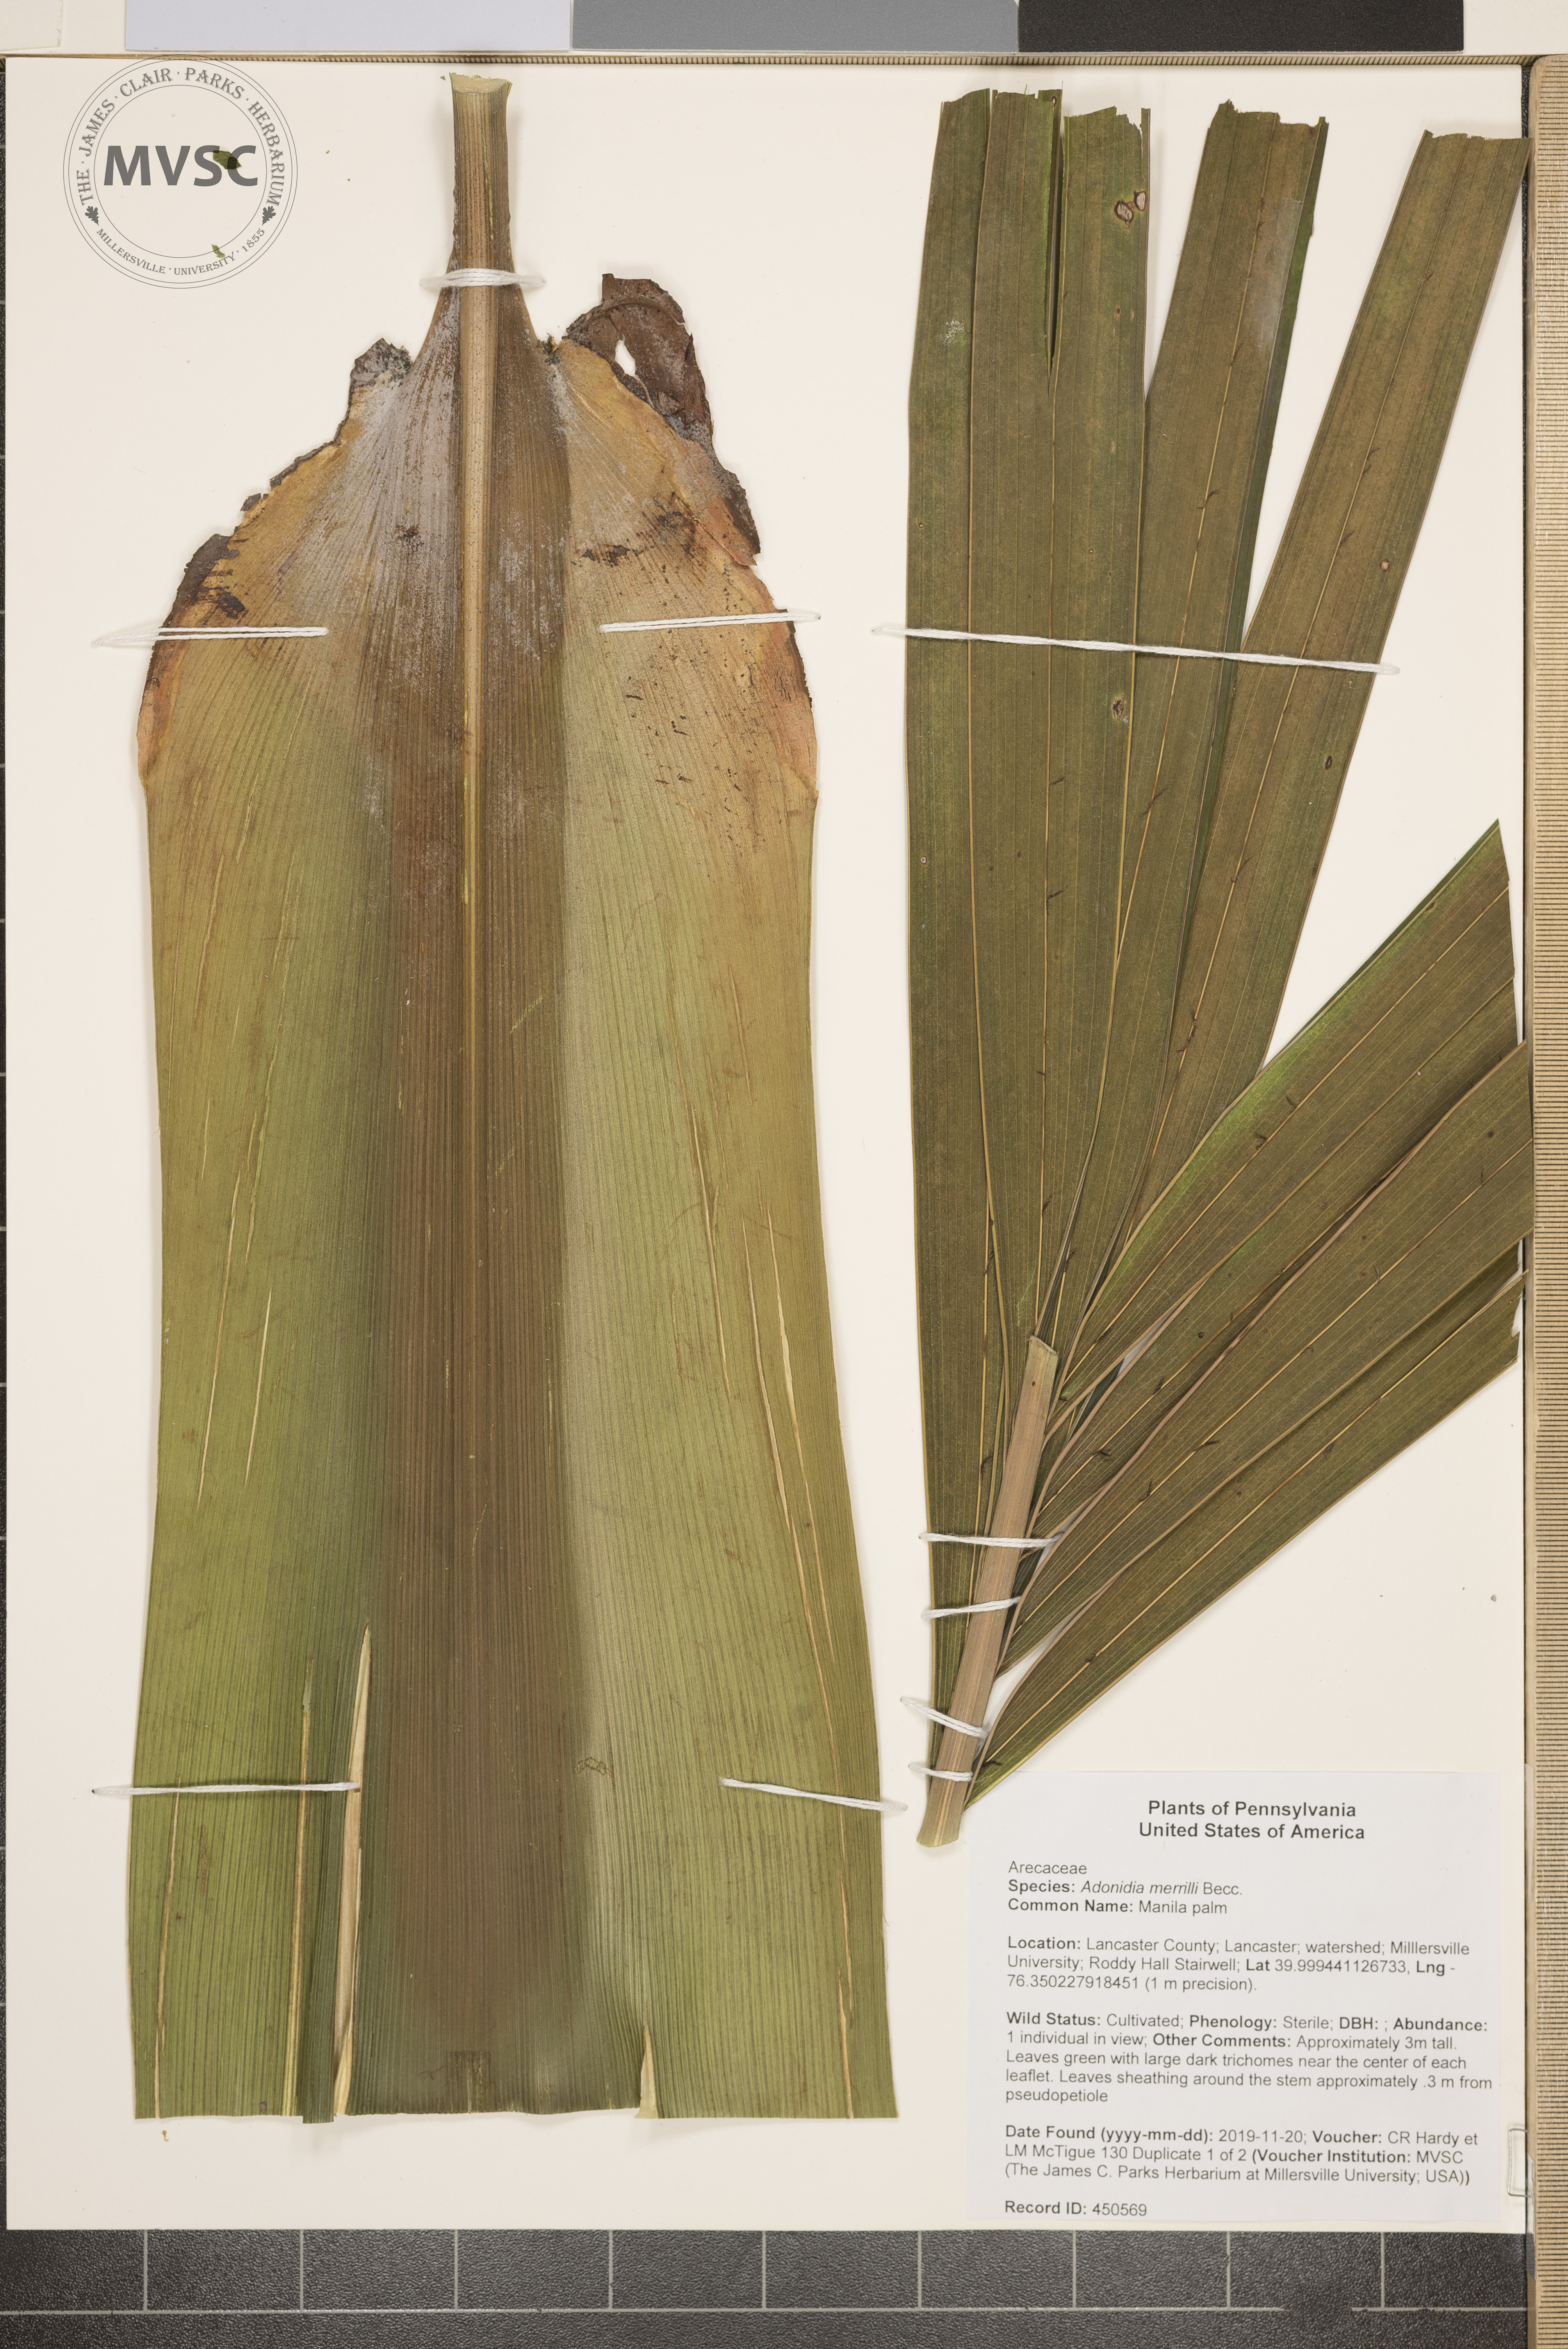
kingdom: Plantae
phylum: Tracheophyta
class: Liliopsida
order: Arecales
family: Arecaceae
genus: Adonidia
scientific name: Adonidia merrillii
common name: Manila palm
